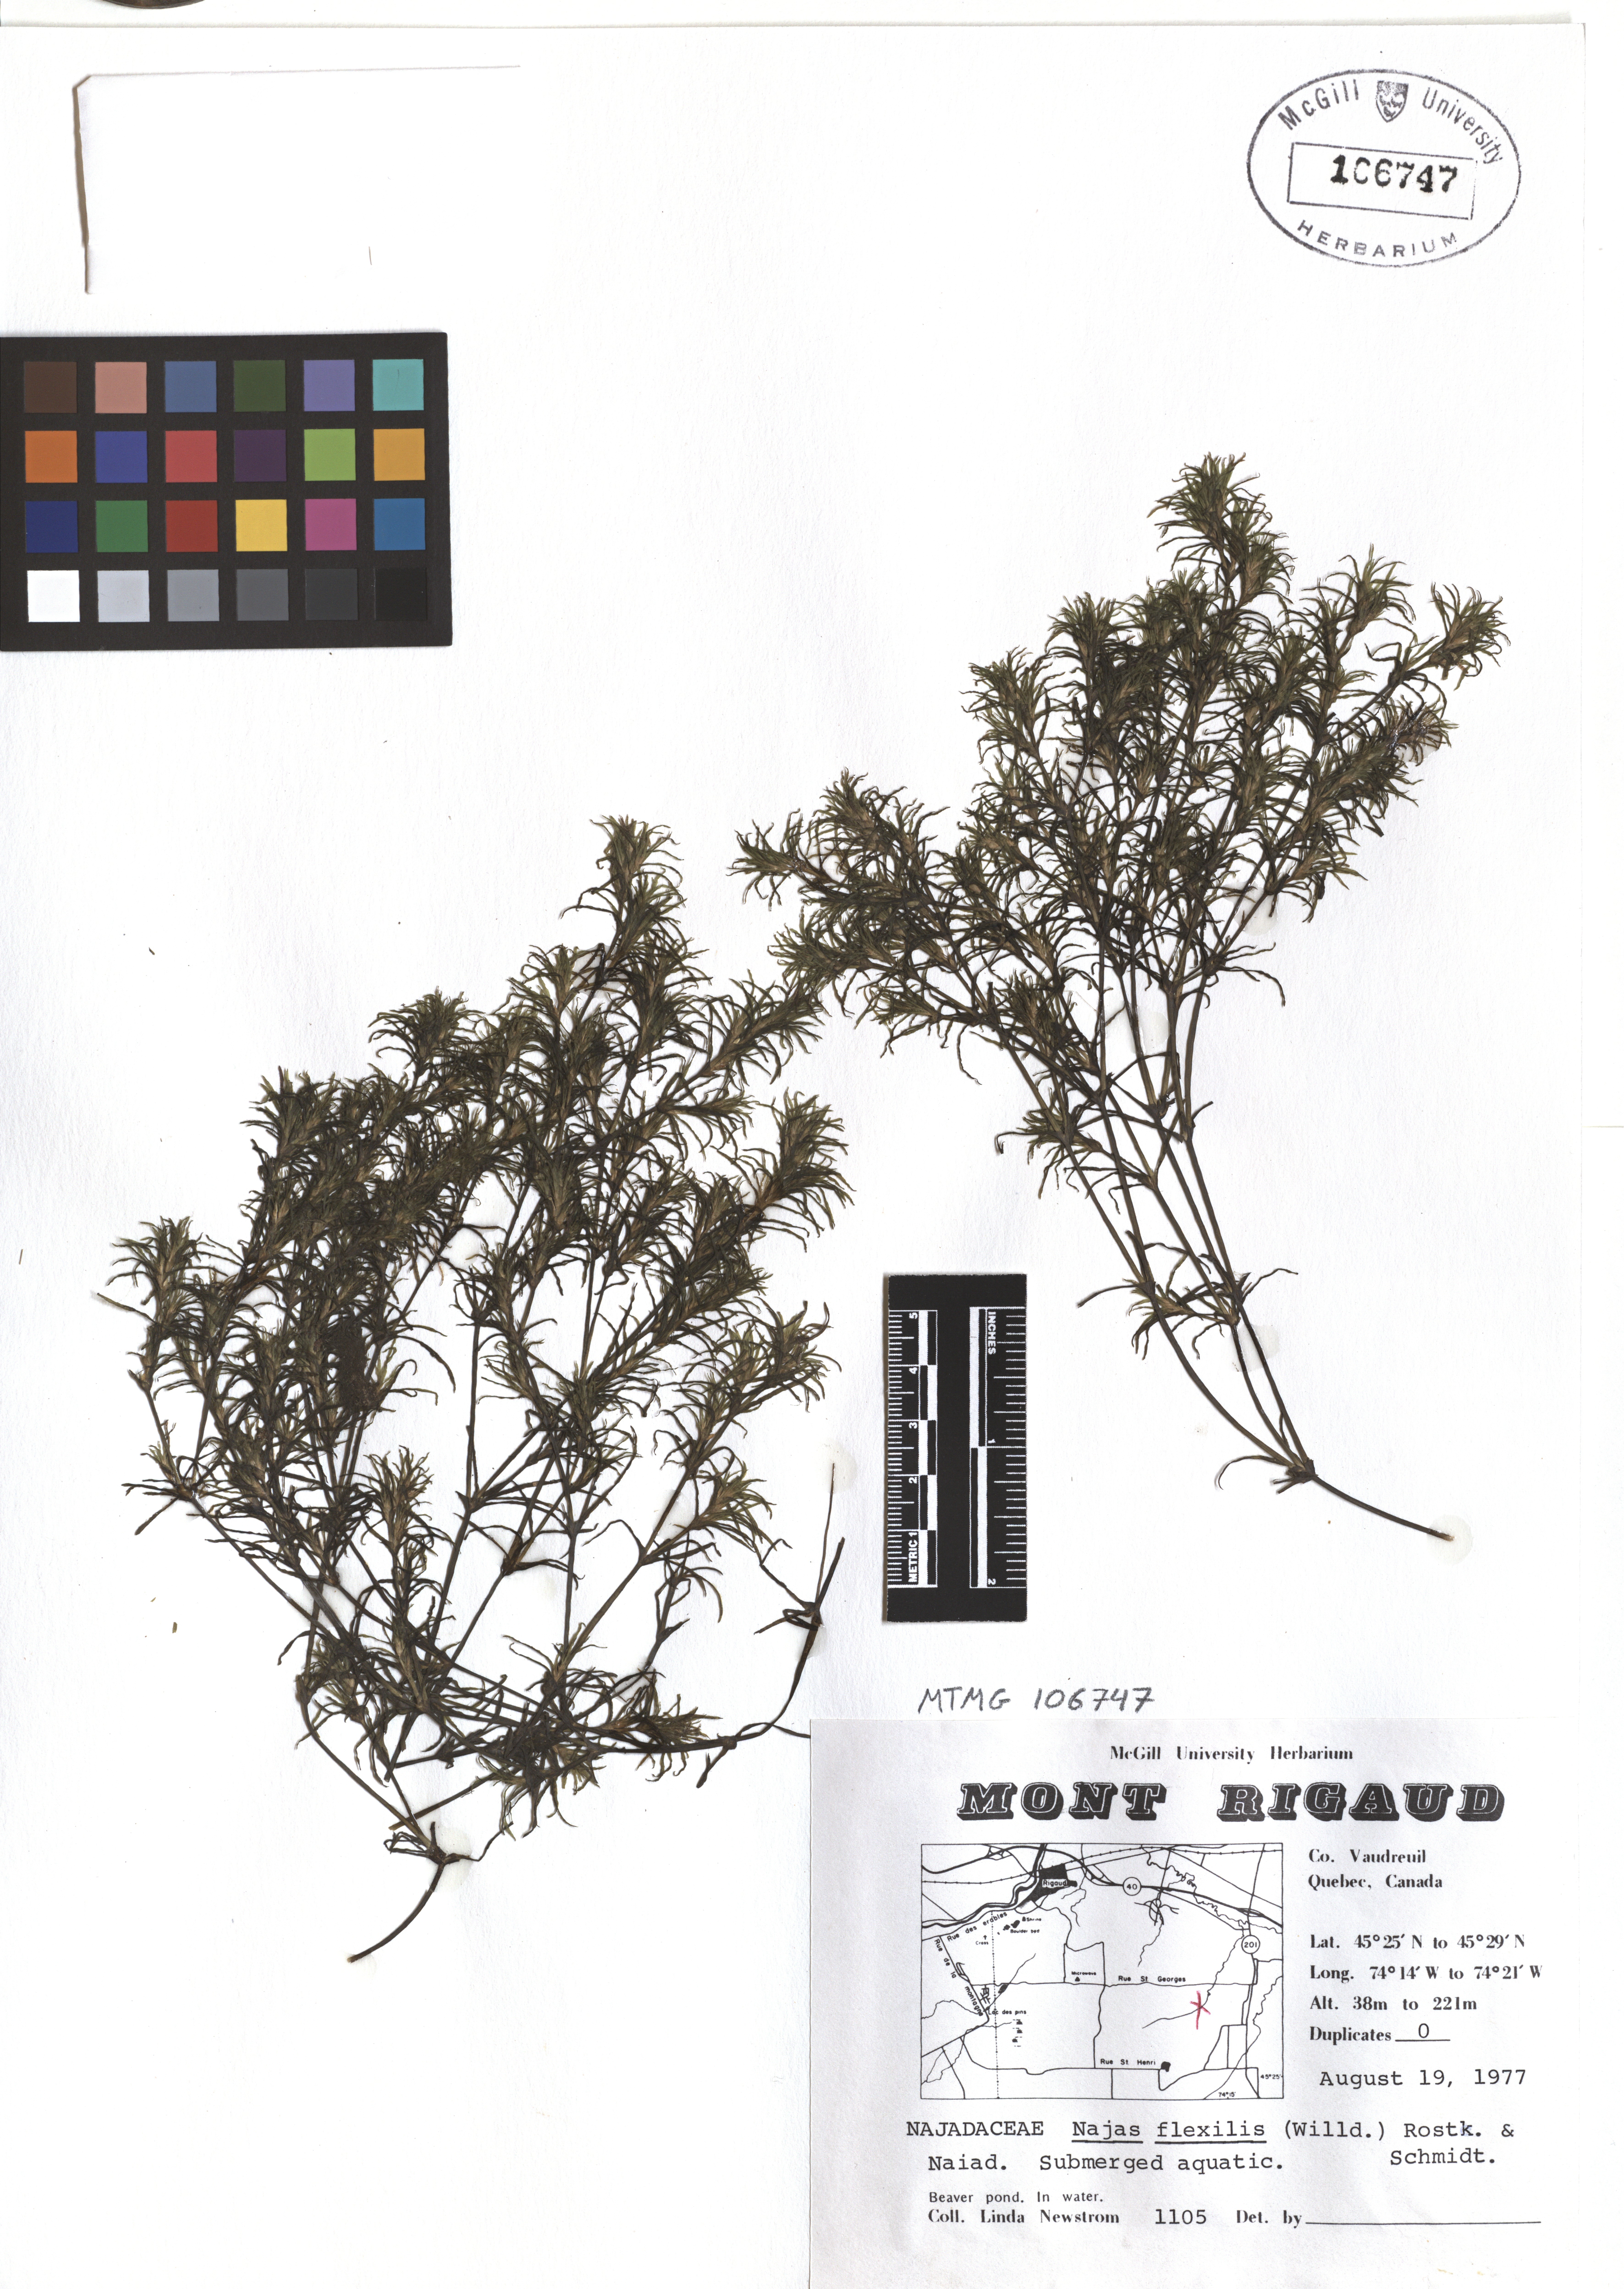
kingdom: Plantae
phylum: Tracheophyta
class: Liliopsida
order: Alismatales
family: Hydrocharitaceae
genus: Najas
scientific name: Najas guadalupensis
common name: Southern naiad
